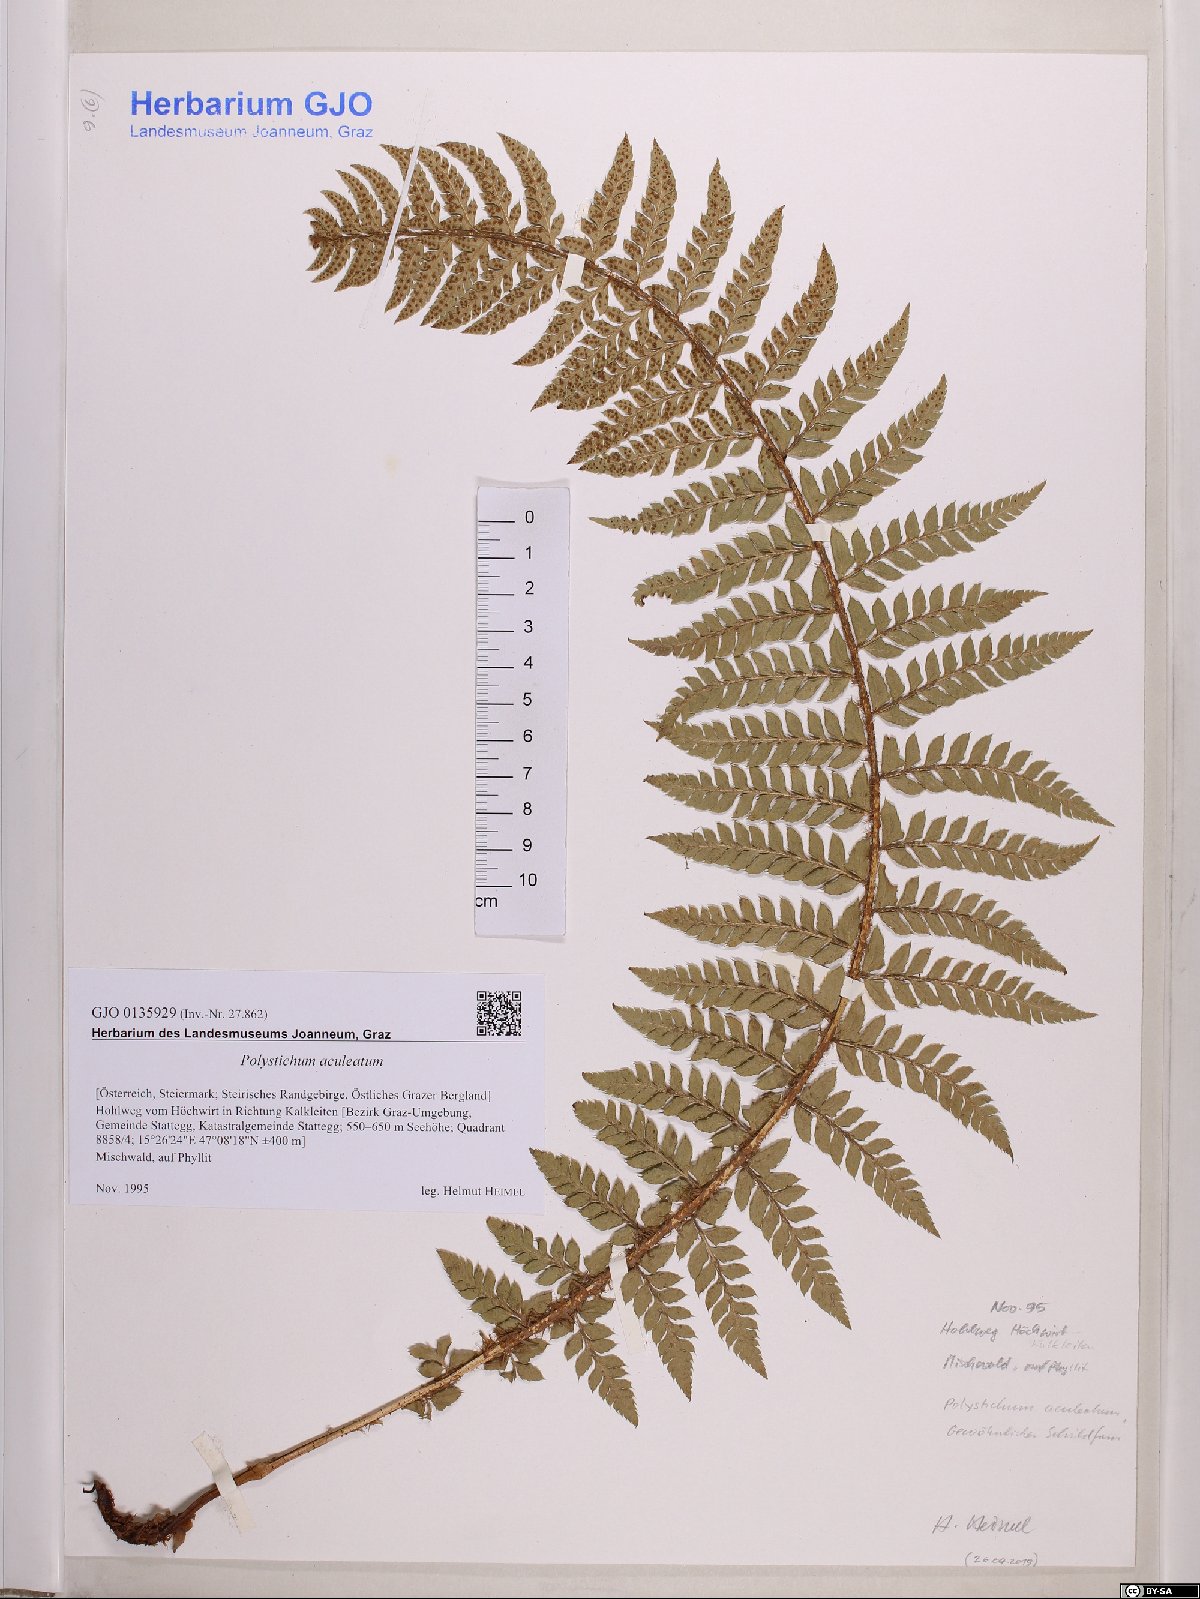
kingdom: Plantae
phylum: Tracheophyta
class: Polypodiopsida
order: Polypodiales
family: Dryopteridaceae
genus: Polystichum
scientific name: Polystichum aculeatum
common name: Hard shield-fern
